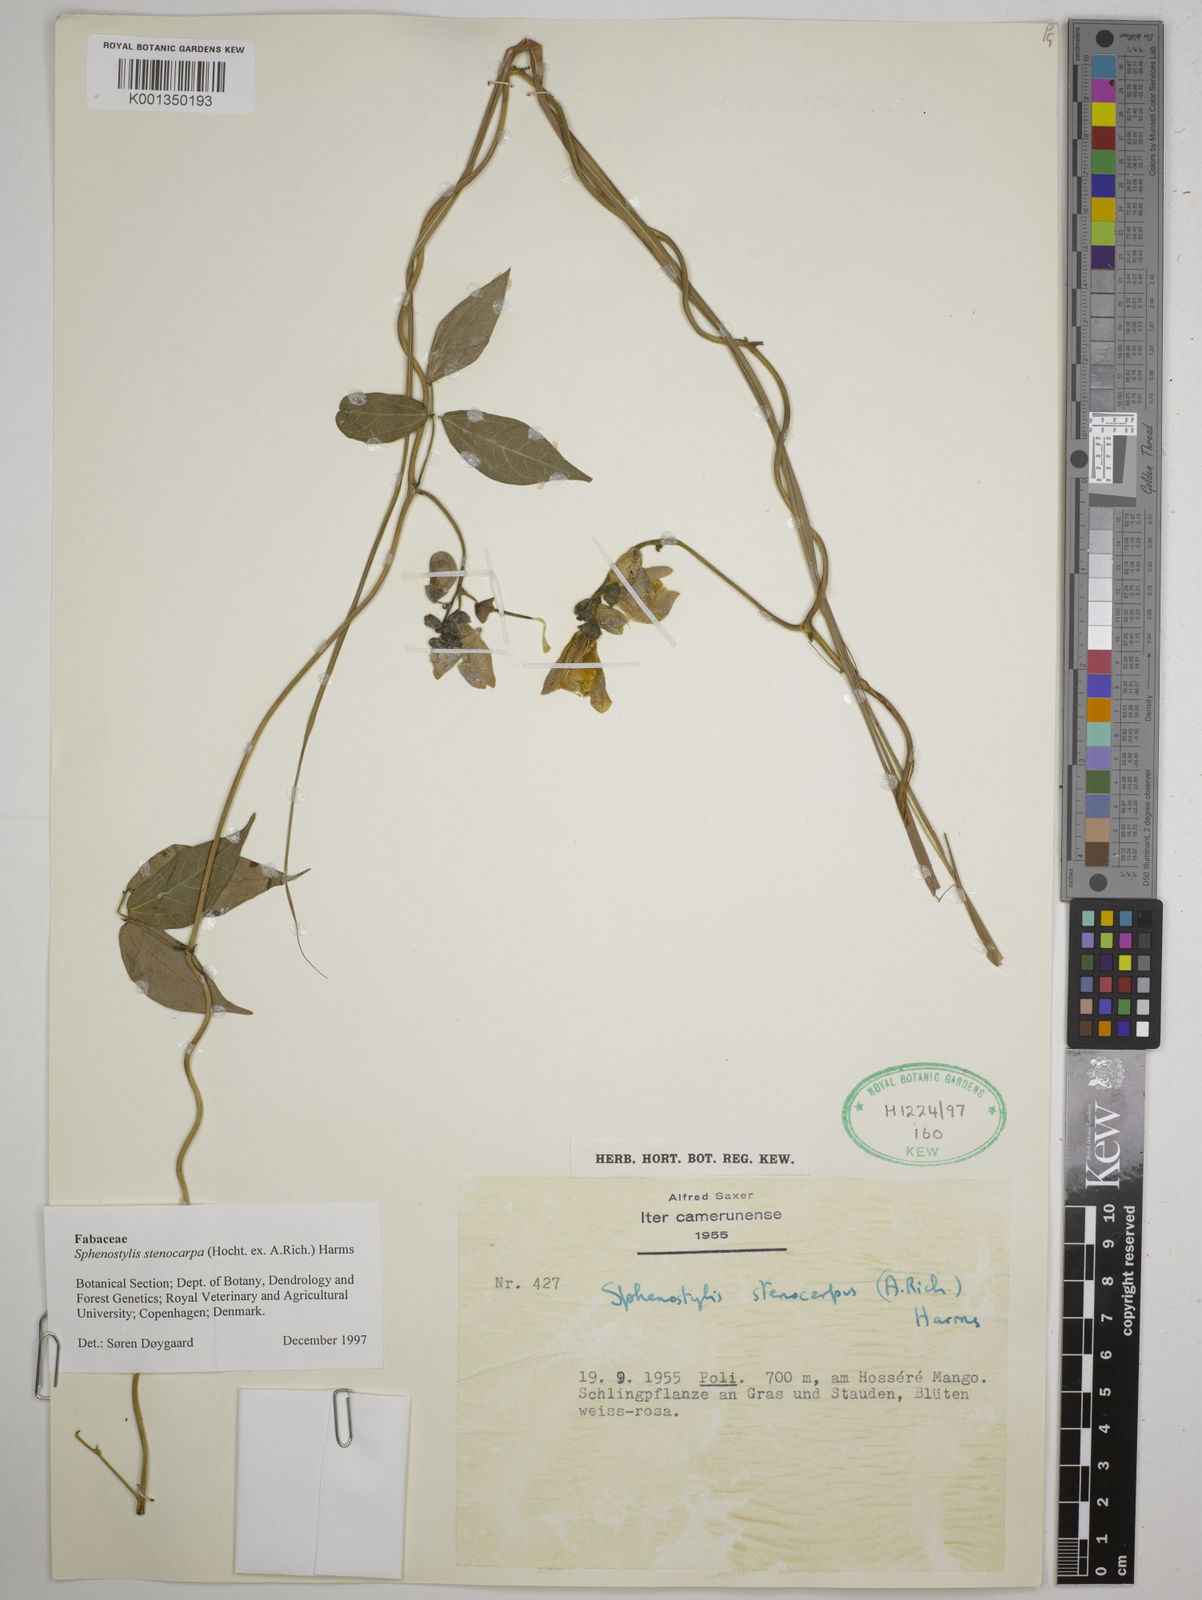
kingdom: Plantae
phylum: Tracheophyta
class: Magnoliopsida
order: Fabales
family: Fabaceae
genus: Sphenostylis
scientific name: Sphenostylis stenocarpa
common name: Yam-pea
